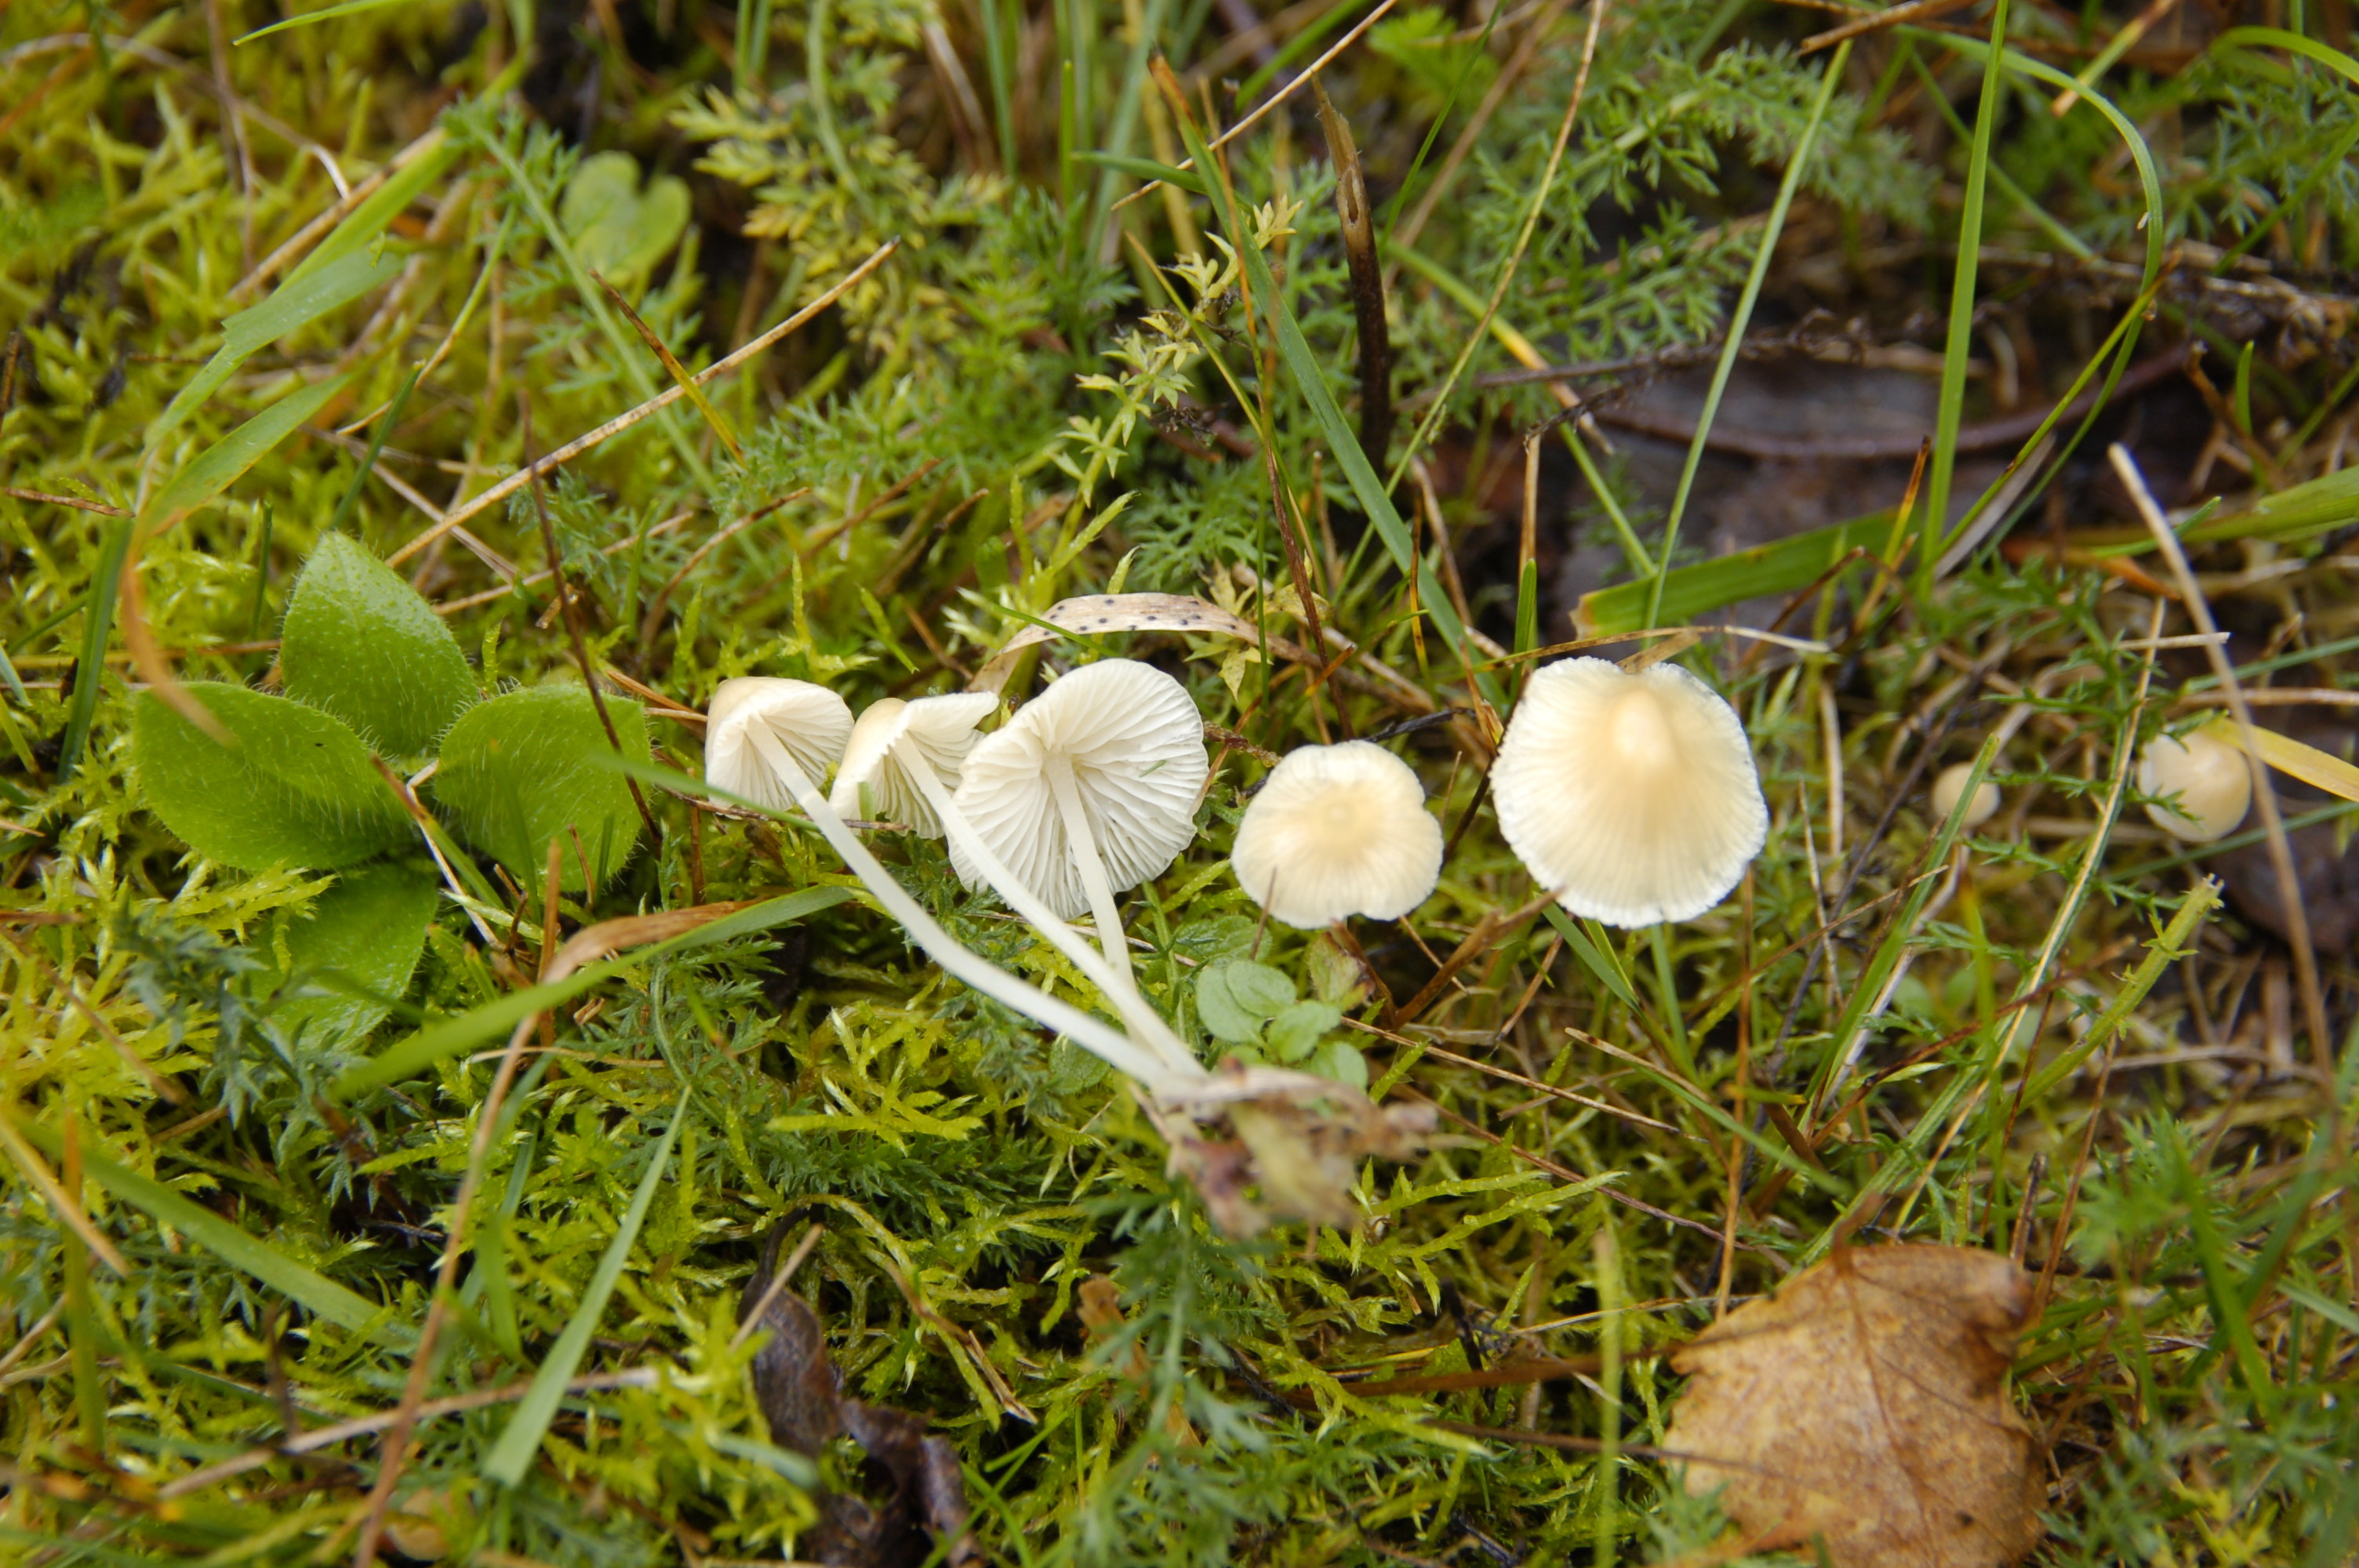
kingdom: Fungi
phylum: Basidiomycota
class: Agaricomycetes
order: Agaricales
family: Mycenaceae
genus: Atheniella
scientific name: Atheniella flavoalba
